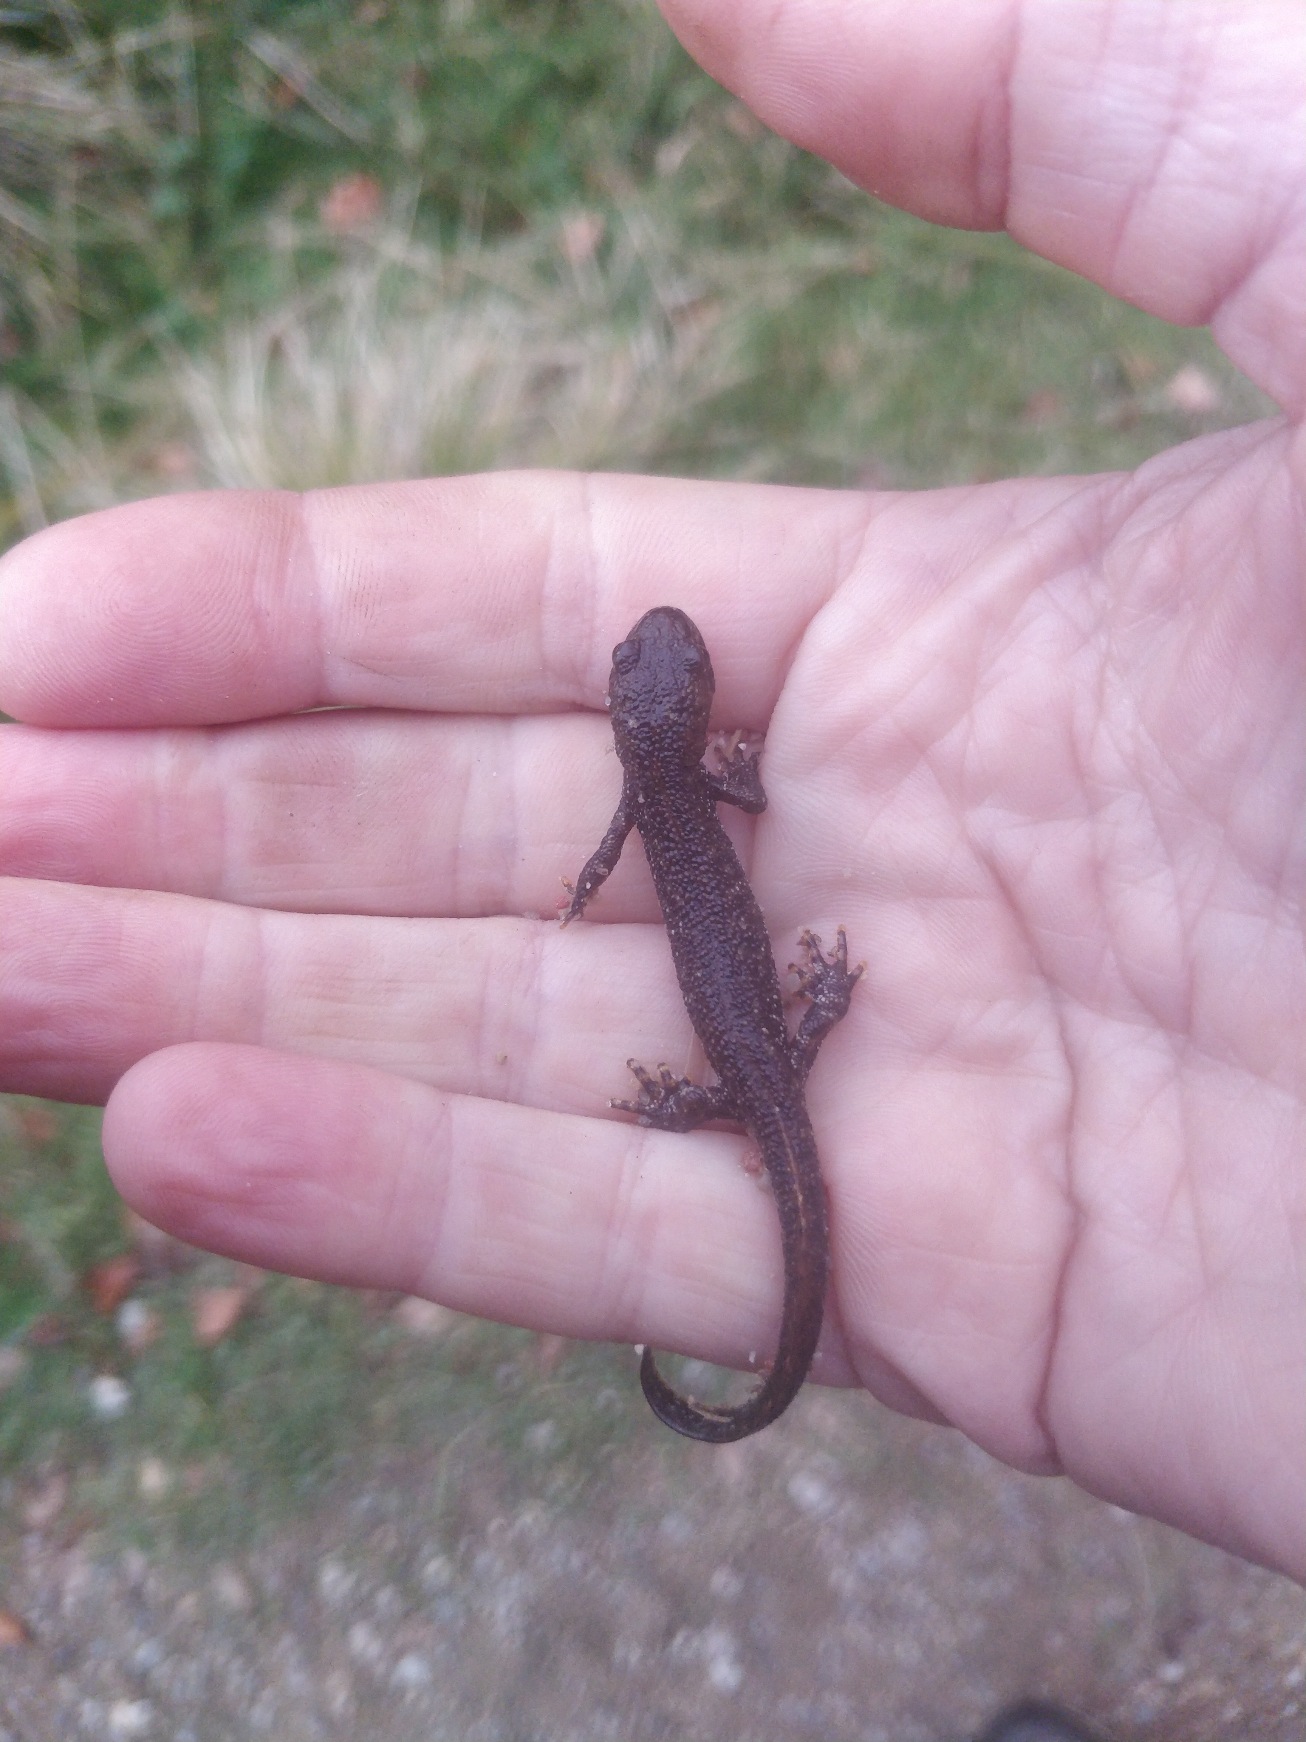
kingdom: Animalia
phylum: Chordata
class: Amphibia
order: Caudata
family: Salamandridae
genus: Triturus
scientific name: Triturus cristatus
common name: Stor vandsalamander
